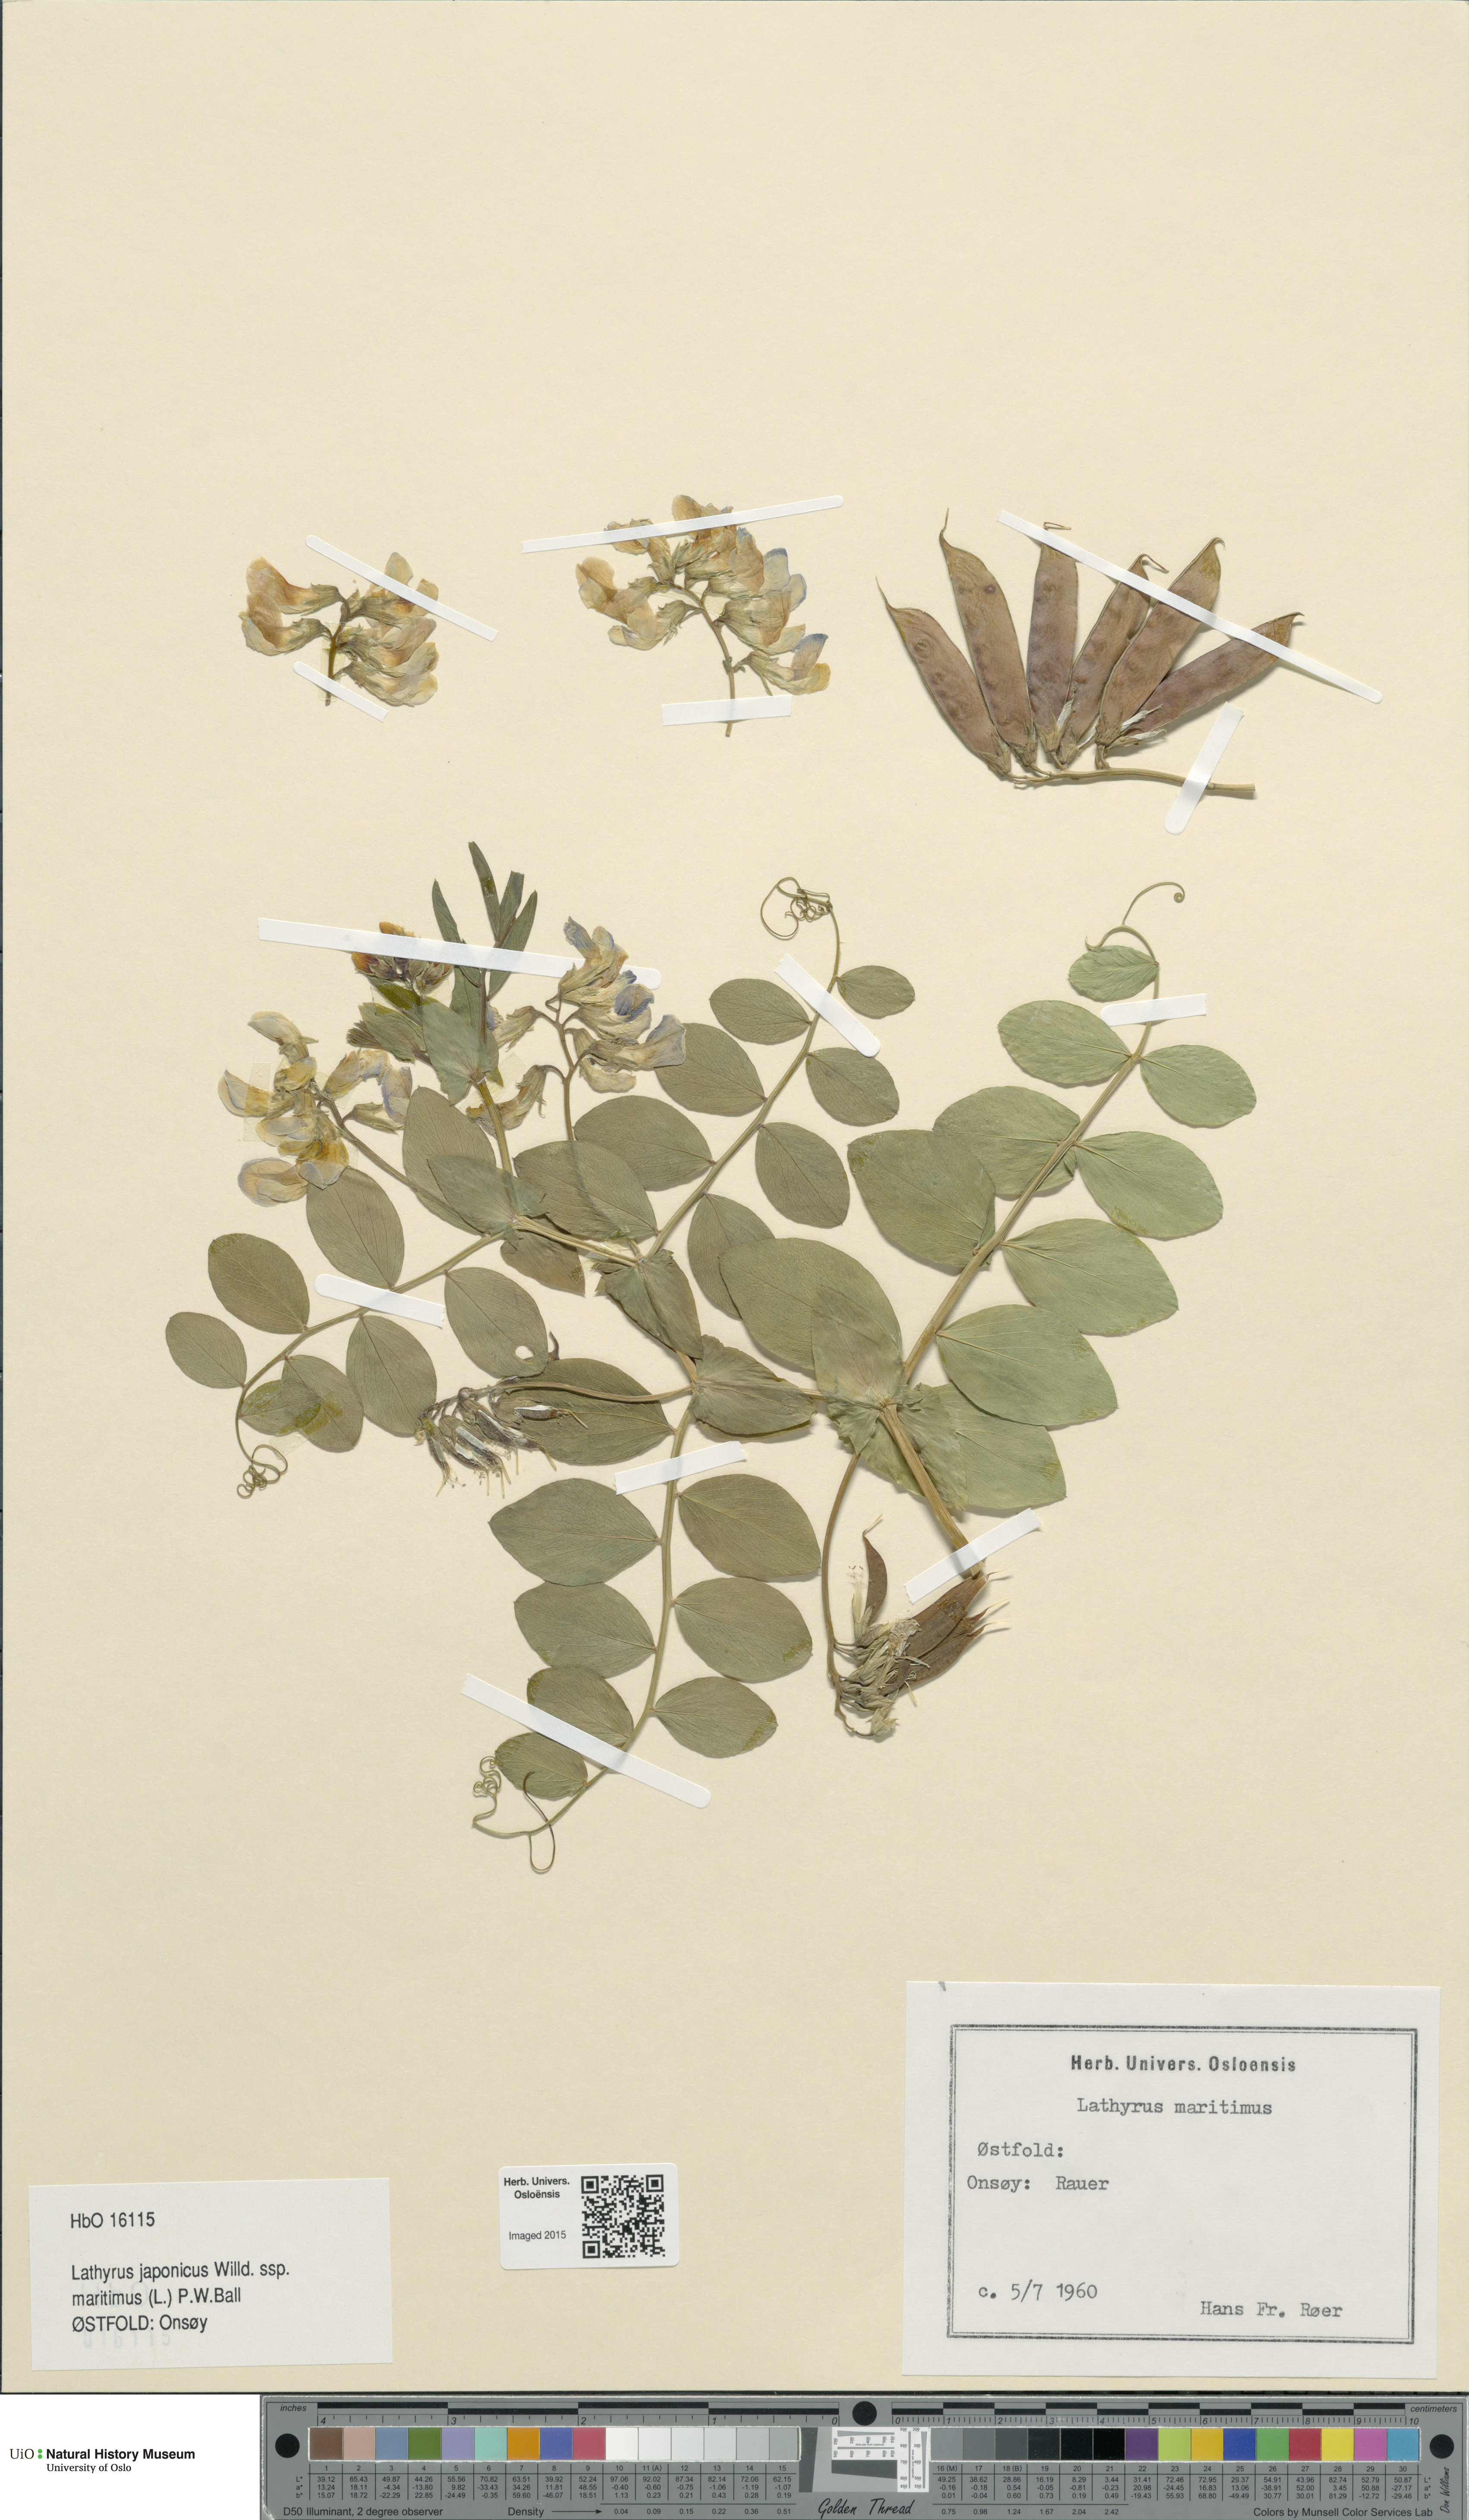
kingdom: Plantae
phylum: Tracheophyta
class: Magnoliopsida
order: Fabales
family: Fabaceae
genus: Lathyrus
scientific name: Lathyrus japonicus
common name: Sea pea
